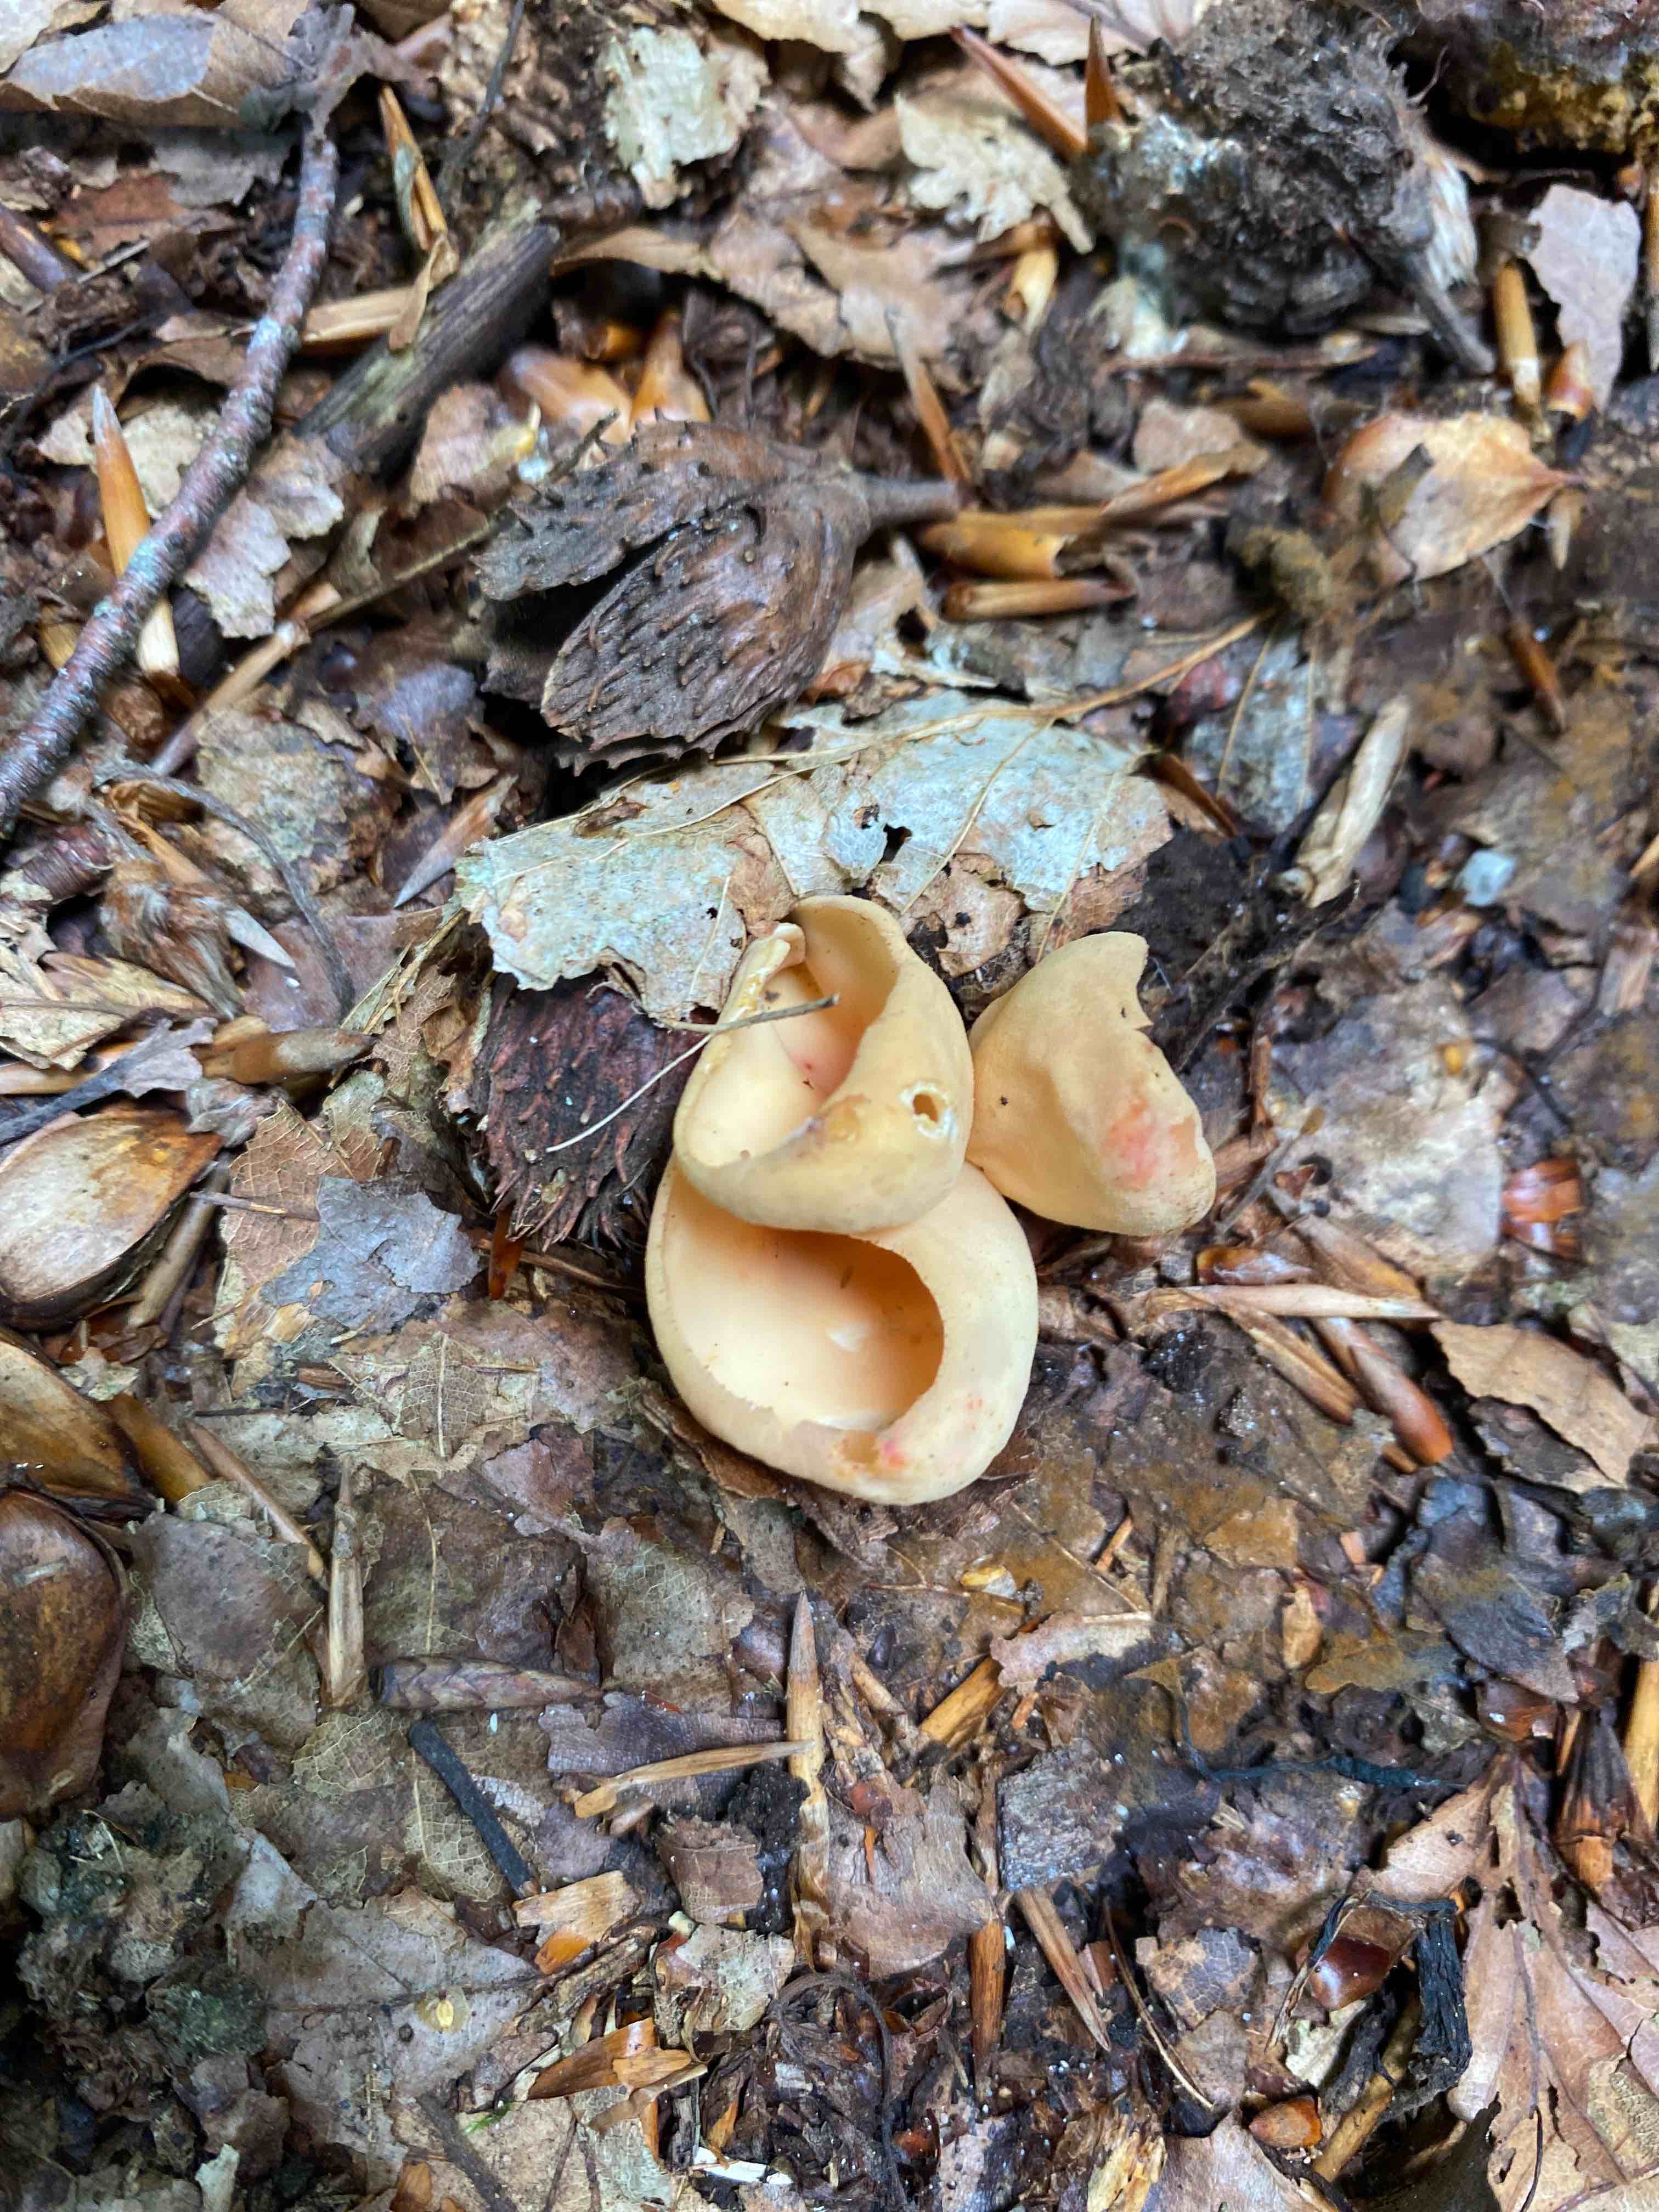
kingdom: Fungi
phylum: Ascomycota
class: Pezizomycetes
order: Pezizales
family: Otideaceae
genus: Otidea
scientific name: Otidea onotica
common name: æsel-ørebæger
